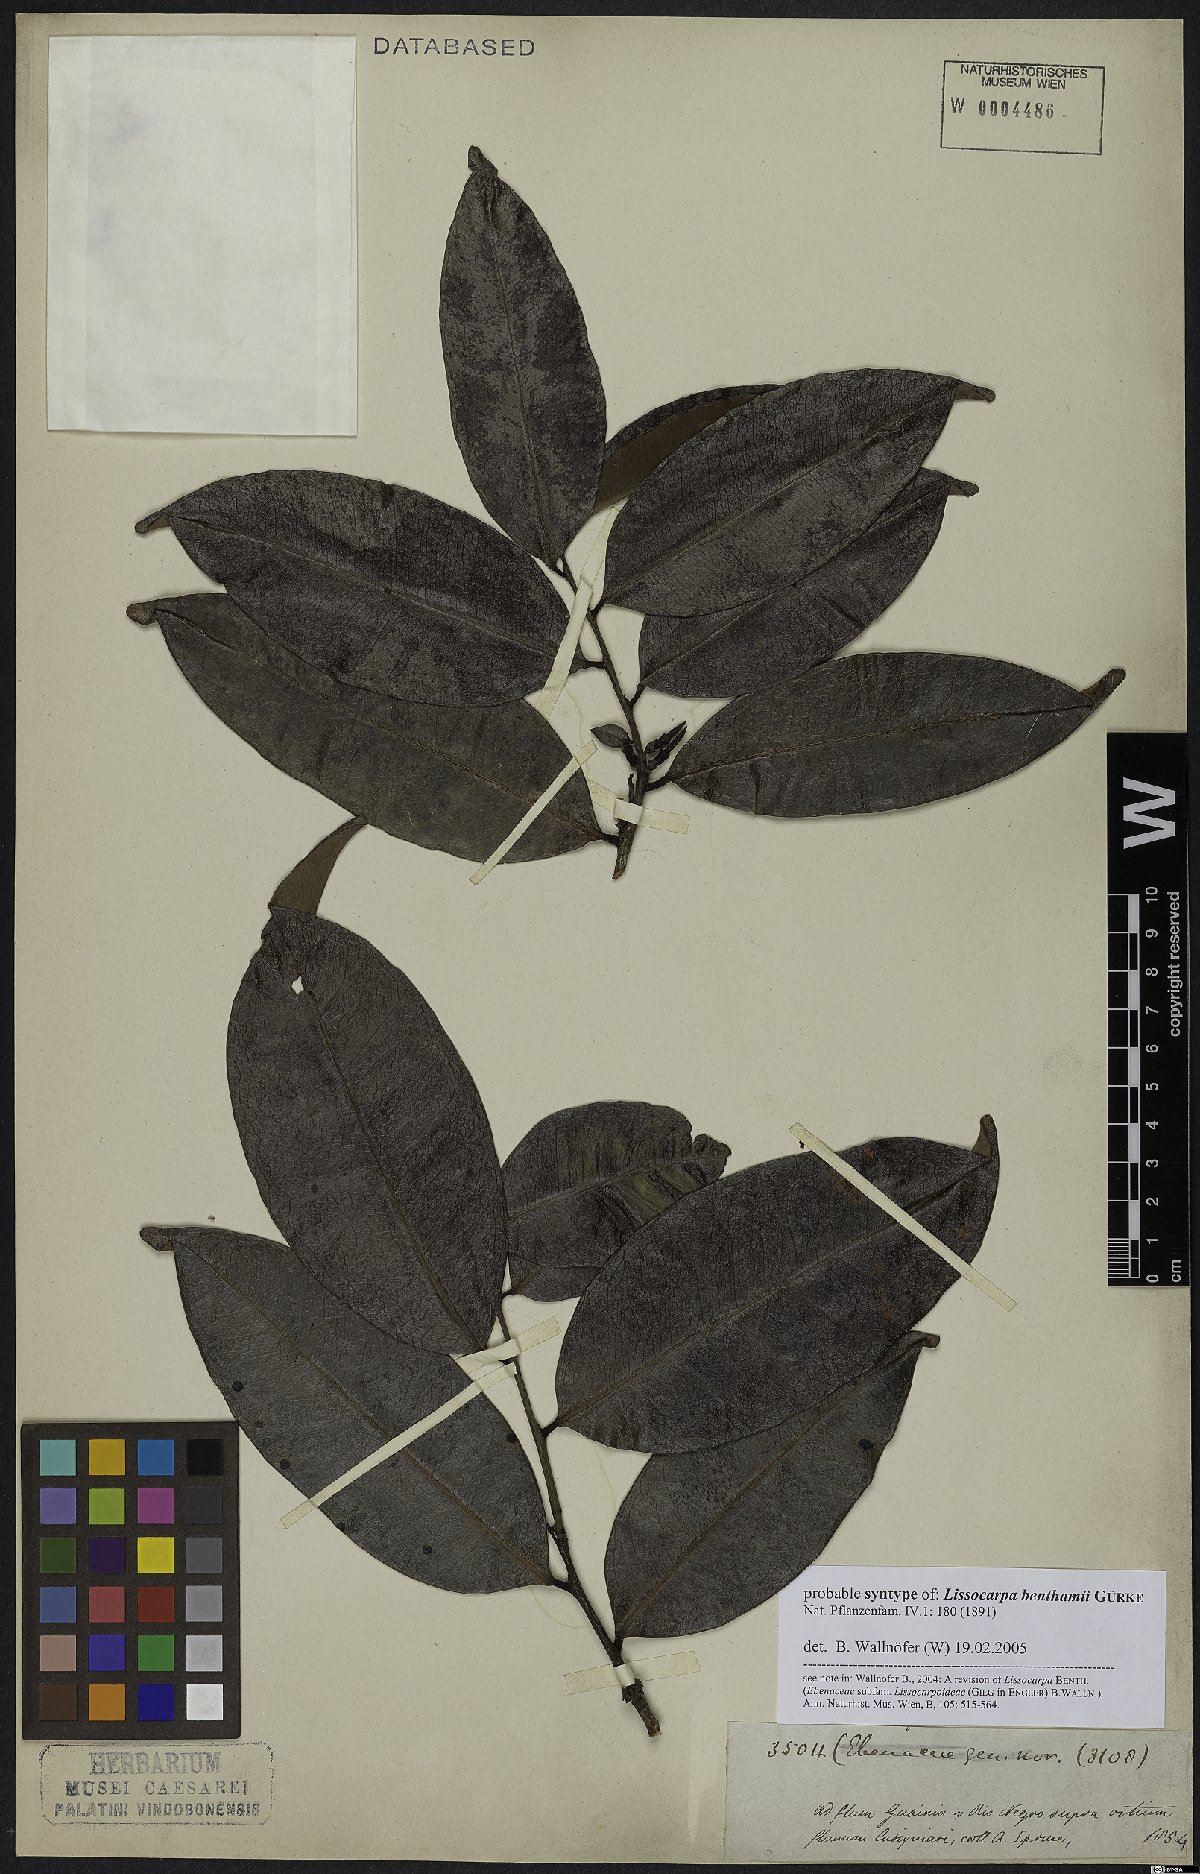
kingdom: Plantae
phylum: Tracheophyta
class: Magnoliopsida
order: Ericales
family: Ebenaceae
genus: Lissocarpa
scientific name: Lissocarpa benthamii
